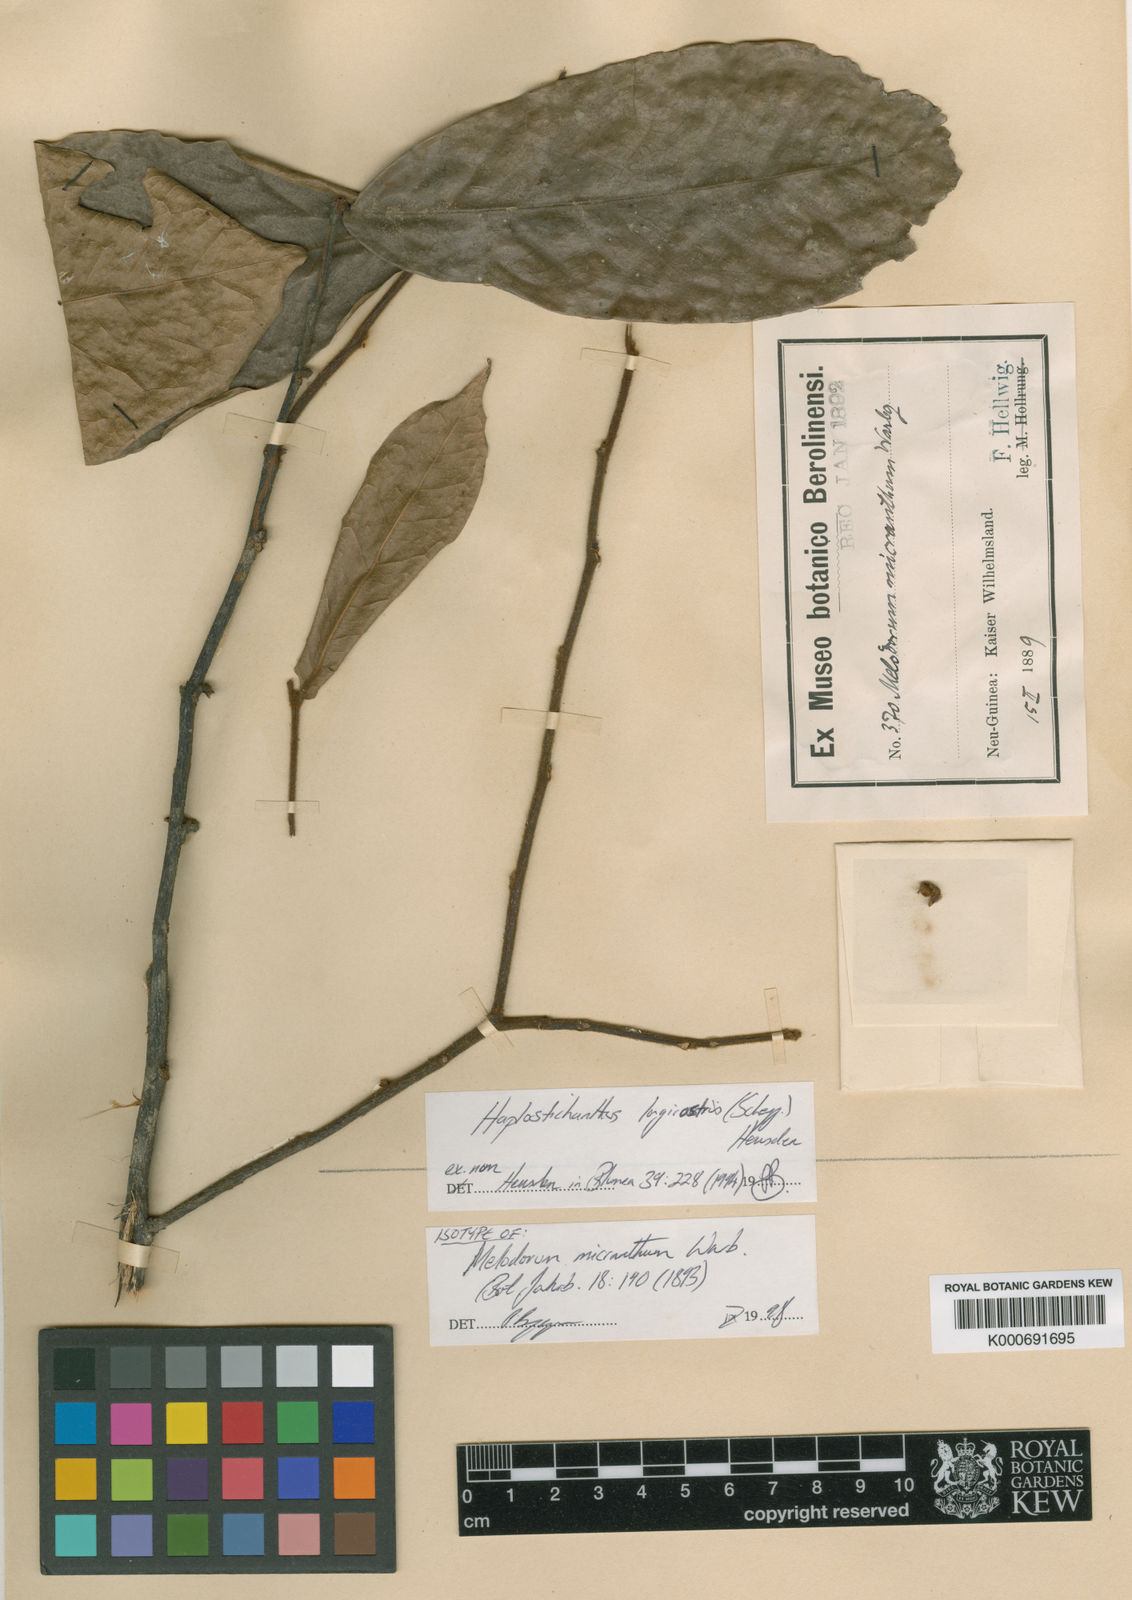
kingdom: Plantae
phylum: Tracheophyta
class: Magnoliopsida
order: Magnoliales
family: Annonaceae
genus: Haplostichanthus
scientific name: Haplostichanthus longirostris
